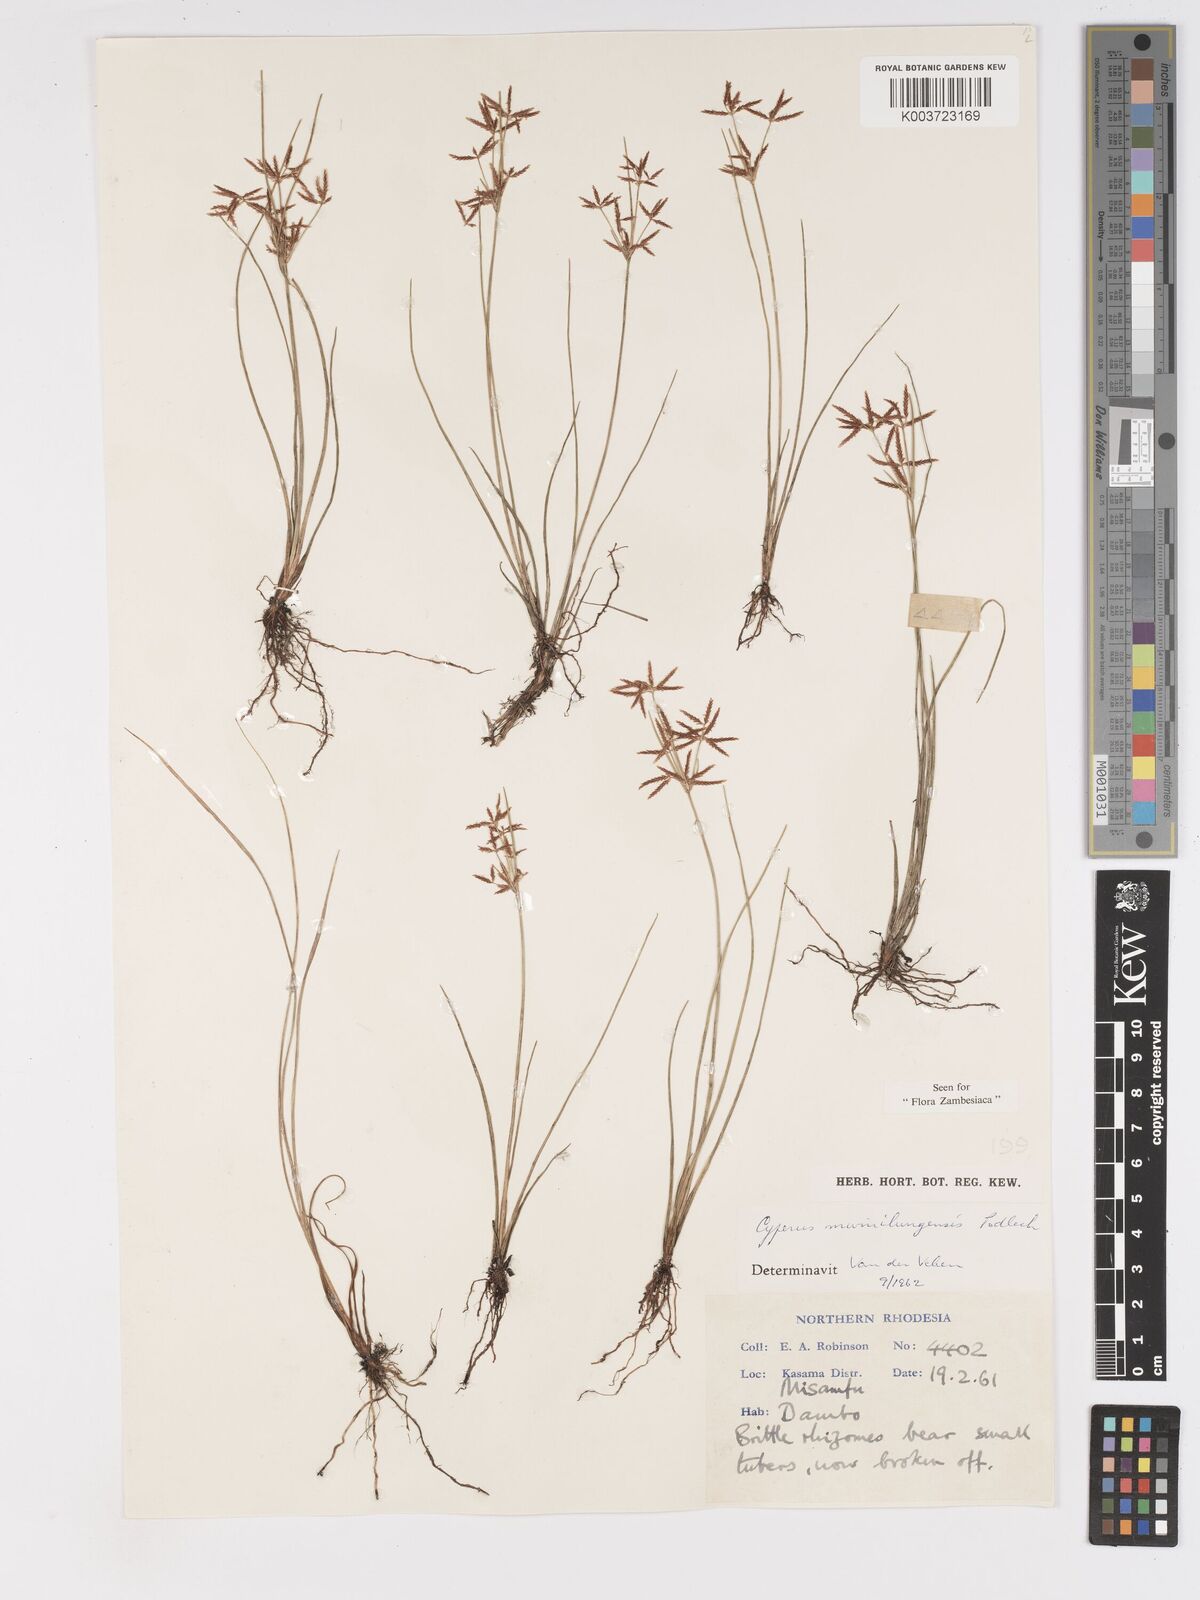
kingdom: Plantae
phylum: Tracheophyta
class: Liliopsida
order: Poales
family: Cyperaceae
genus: Cyperus
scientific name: Cyperus mwinilungensis
